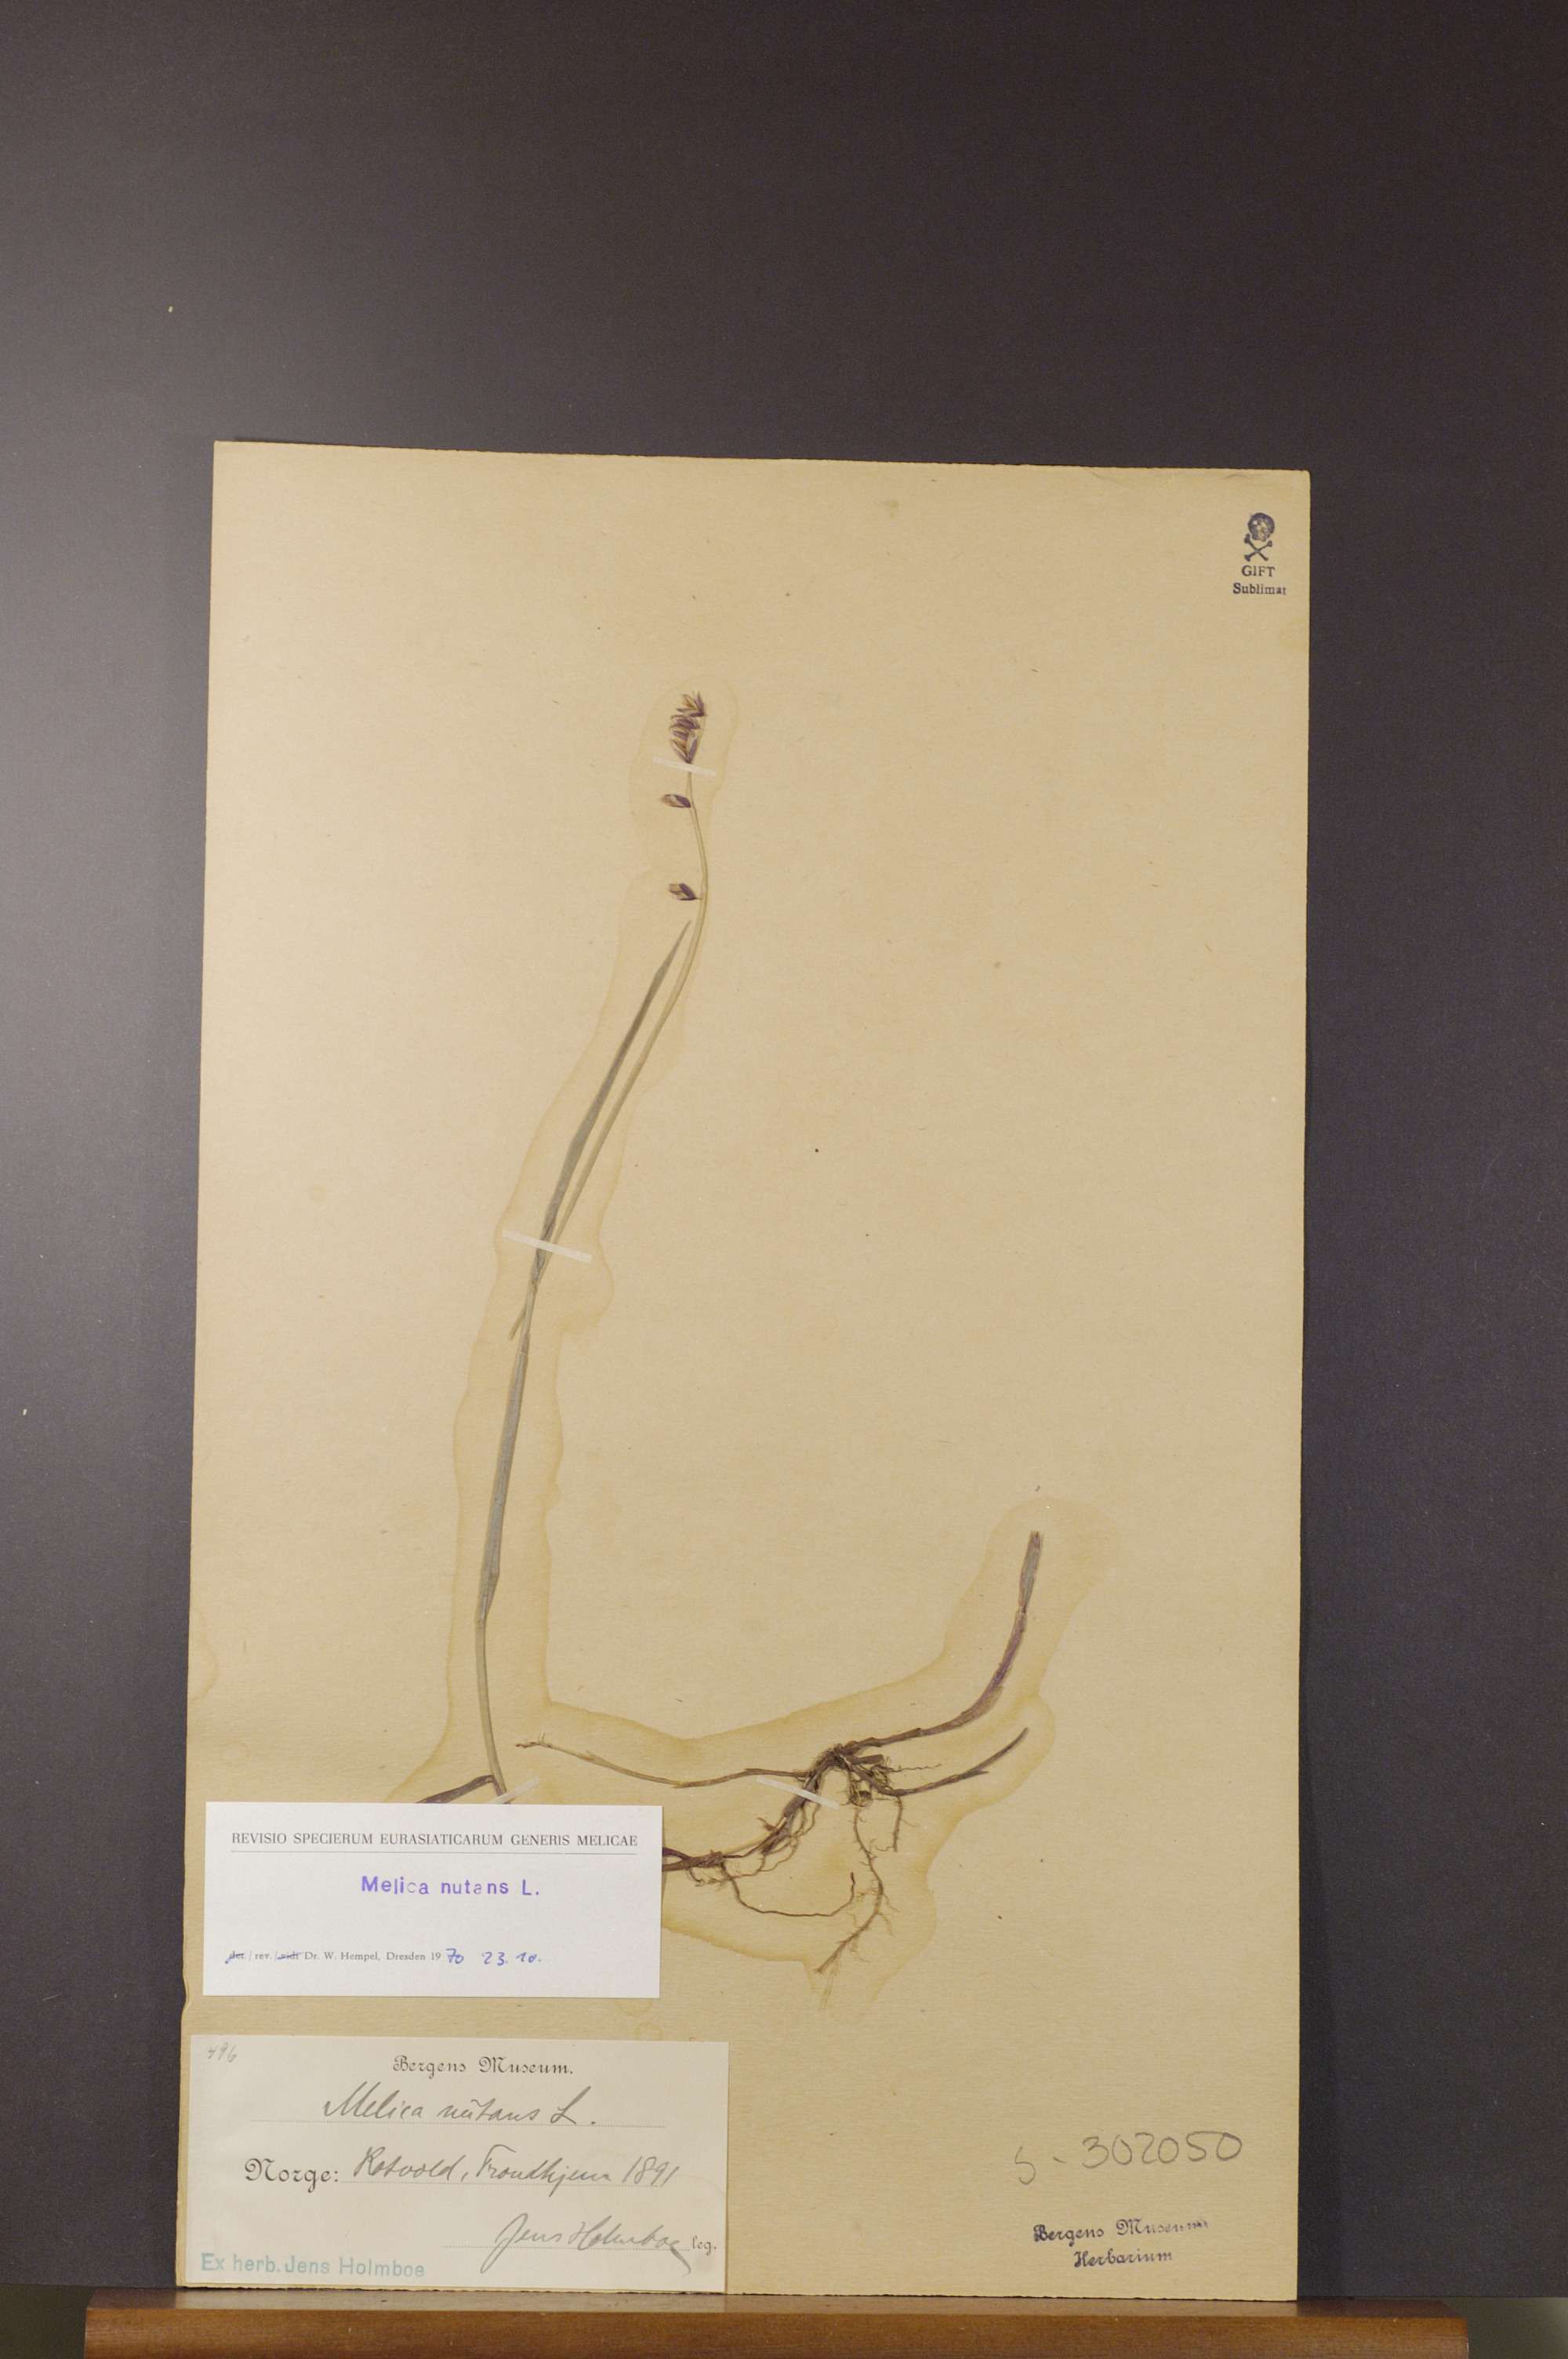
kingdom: Plantae
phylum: Tracheophyta
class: Liliopsida
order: Poales
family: Poaceae
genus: Melica
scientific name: Melica nutans
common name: Mountain melick
